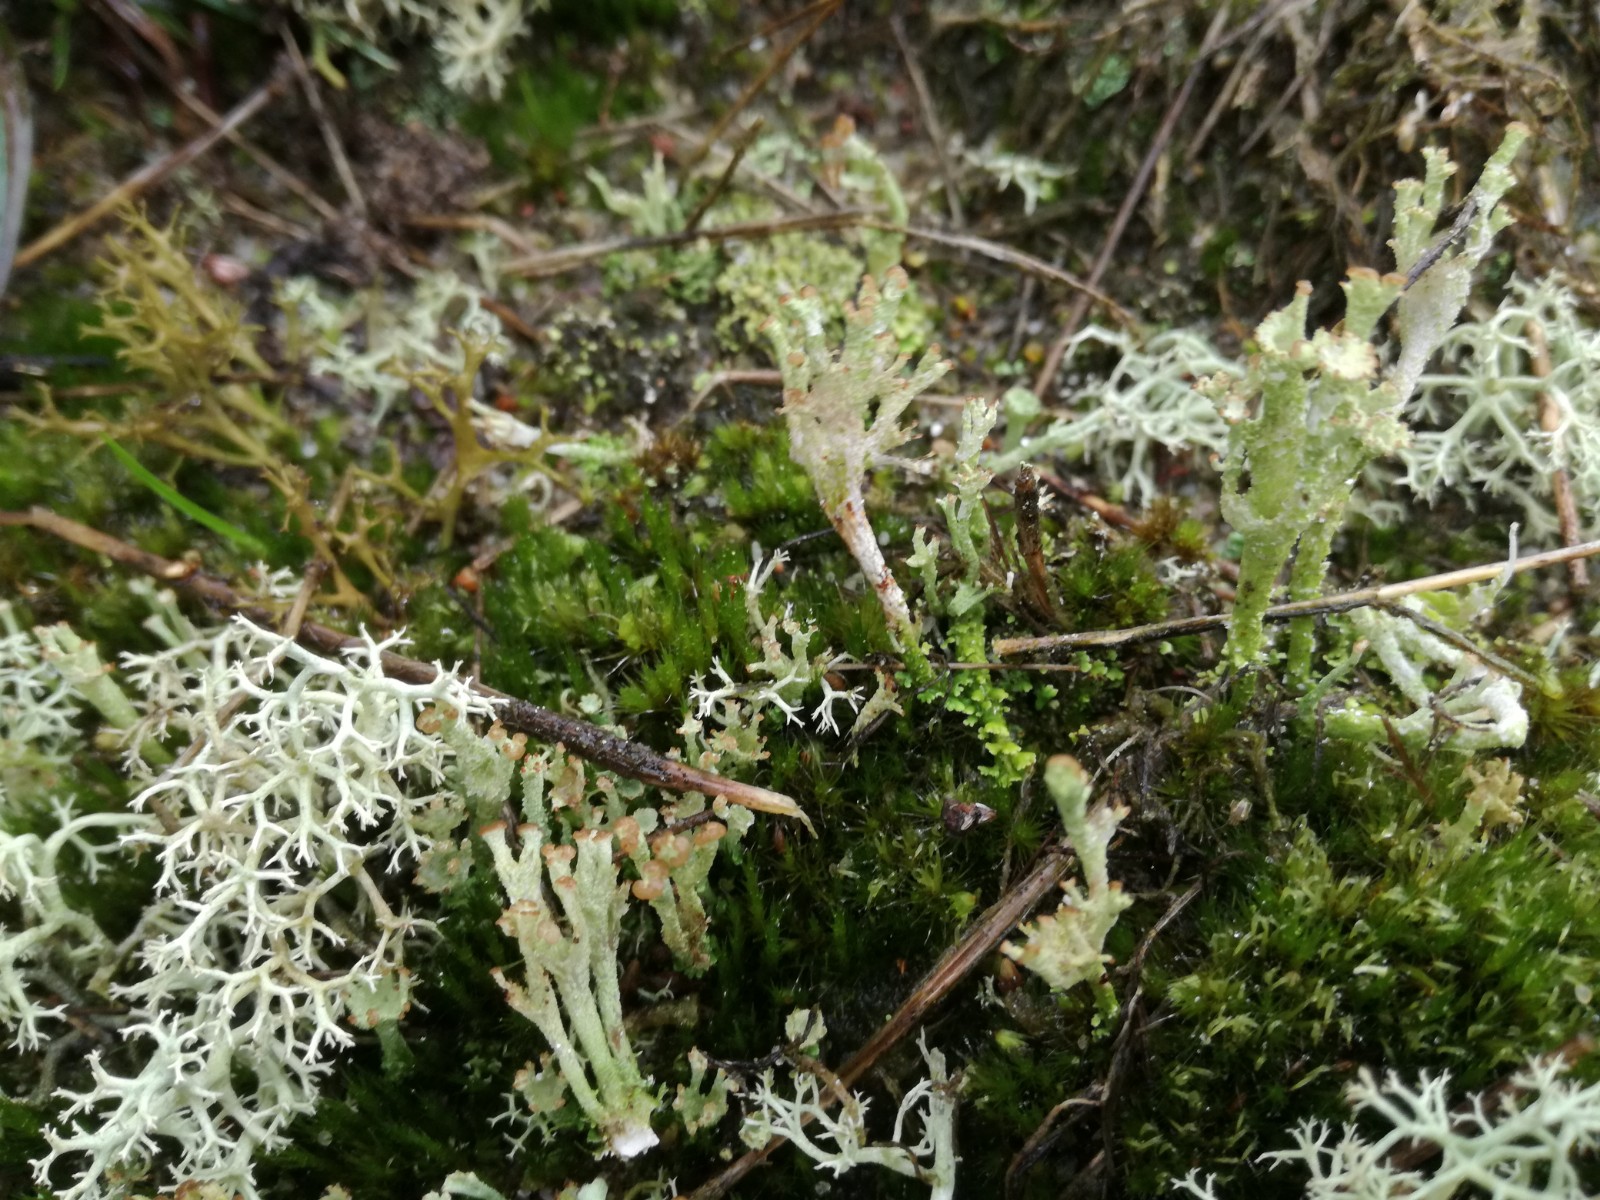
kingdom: Fungi
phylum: Ascomycota
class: Lecanoromycetes
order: Lecanorales
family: Cladoniaceae
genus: Cladonia
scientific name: Cladonia ramulosa
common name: kliddet bægerlav
